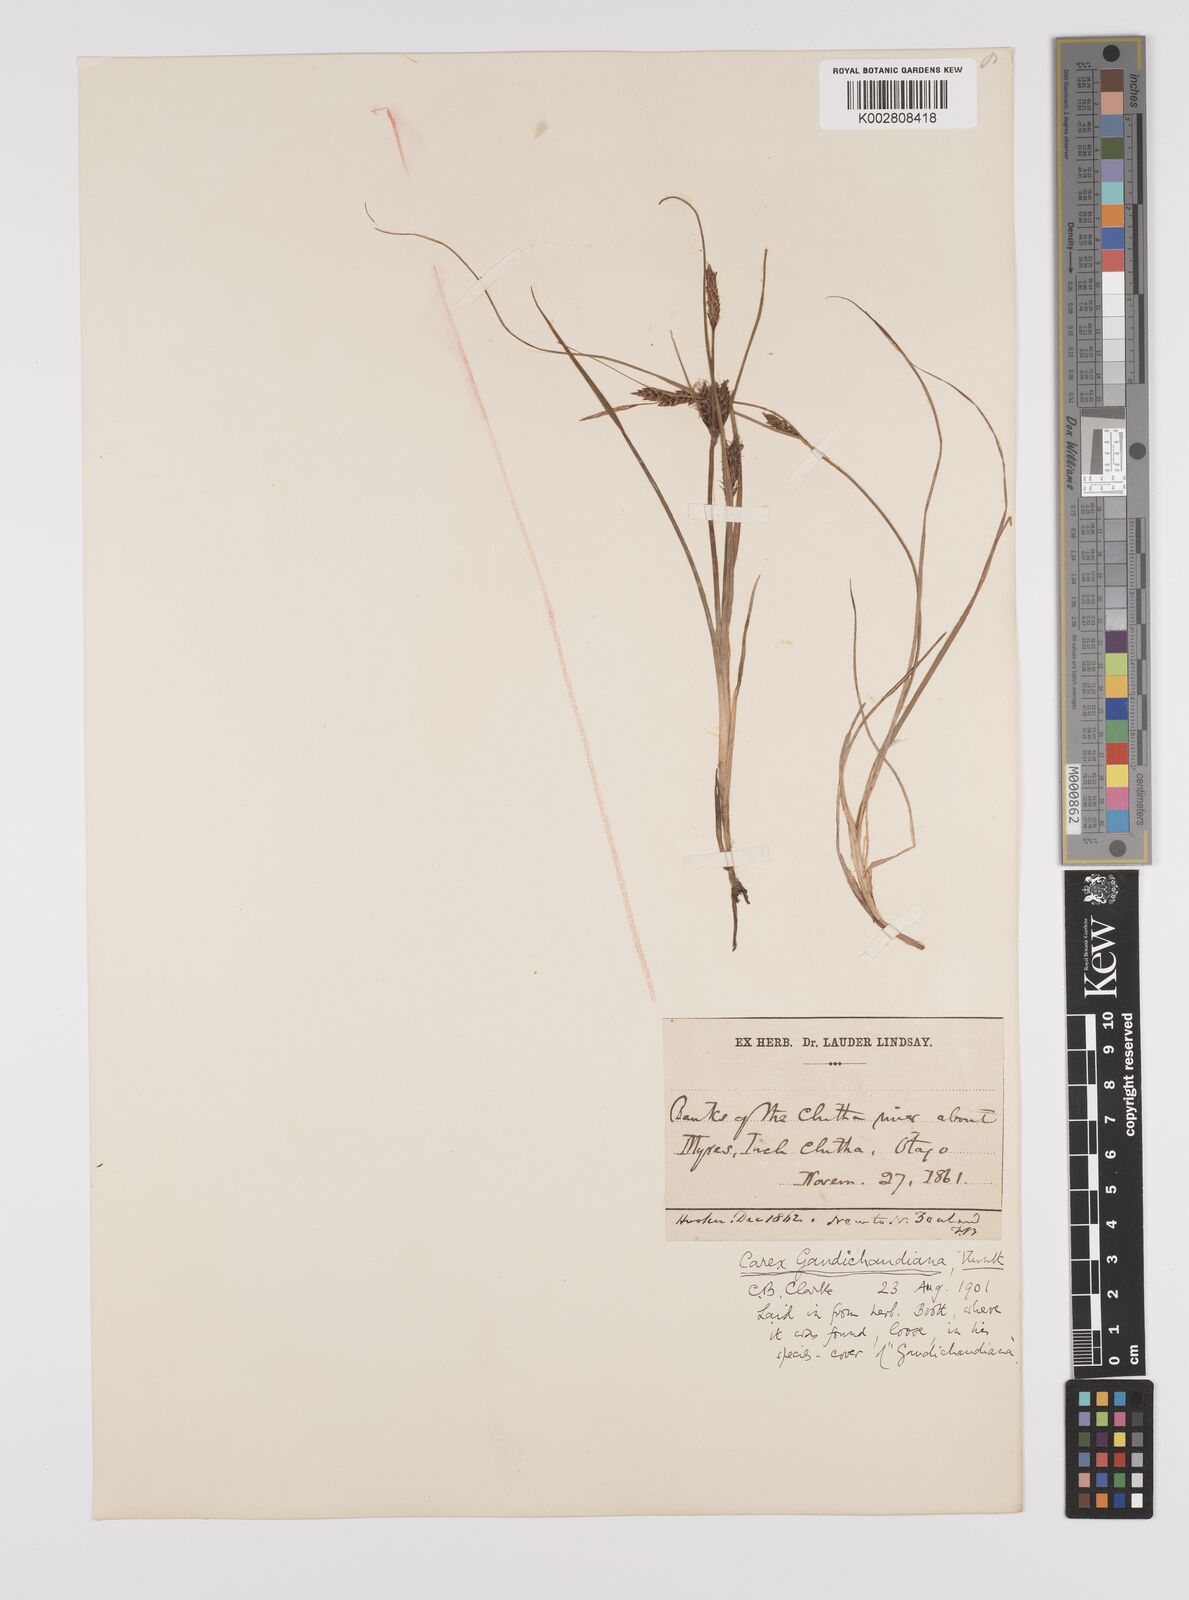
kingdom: Plantae
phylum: Tracheophyta
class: Liliopsida
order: Poales
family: Cyperaceae
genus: Carex
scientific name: Carex gaudichaudiana
